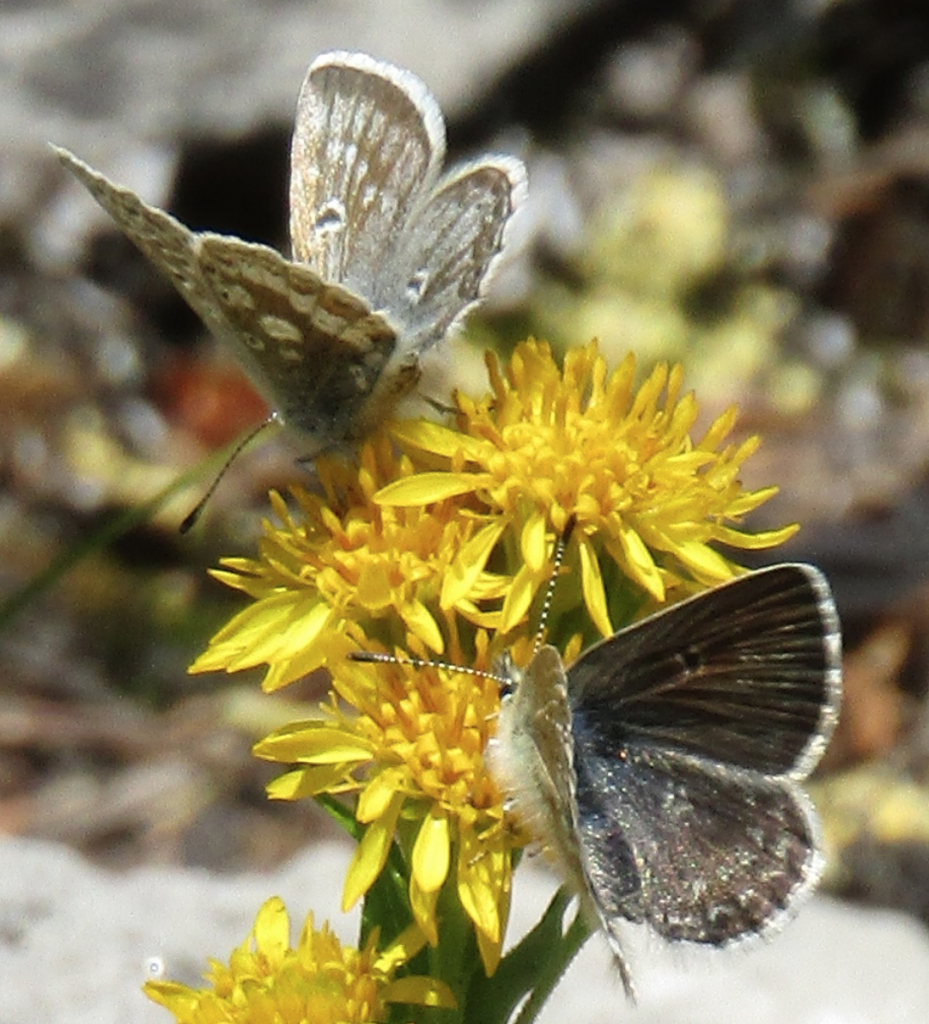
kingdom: Animalia
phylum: Arthropoda
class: Insecta
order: Lepidoptera
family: Lycaenidae
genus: Agriades
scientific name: Agriades glandon
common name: Arctic Blue
